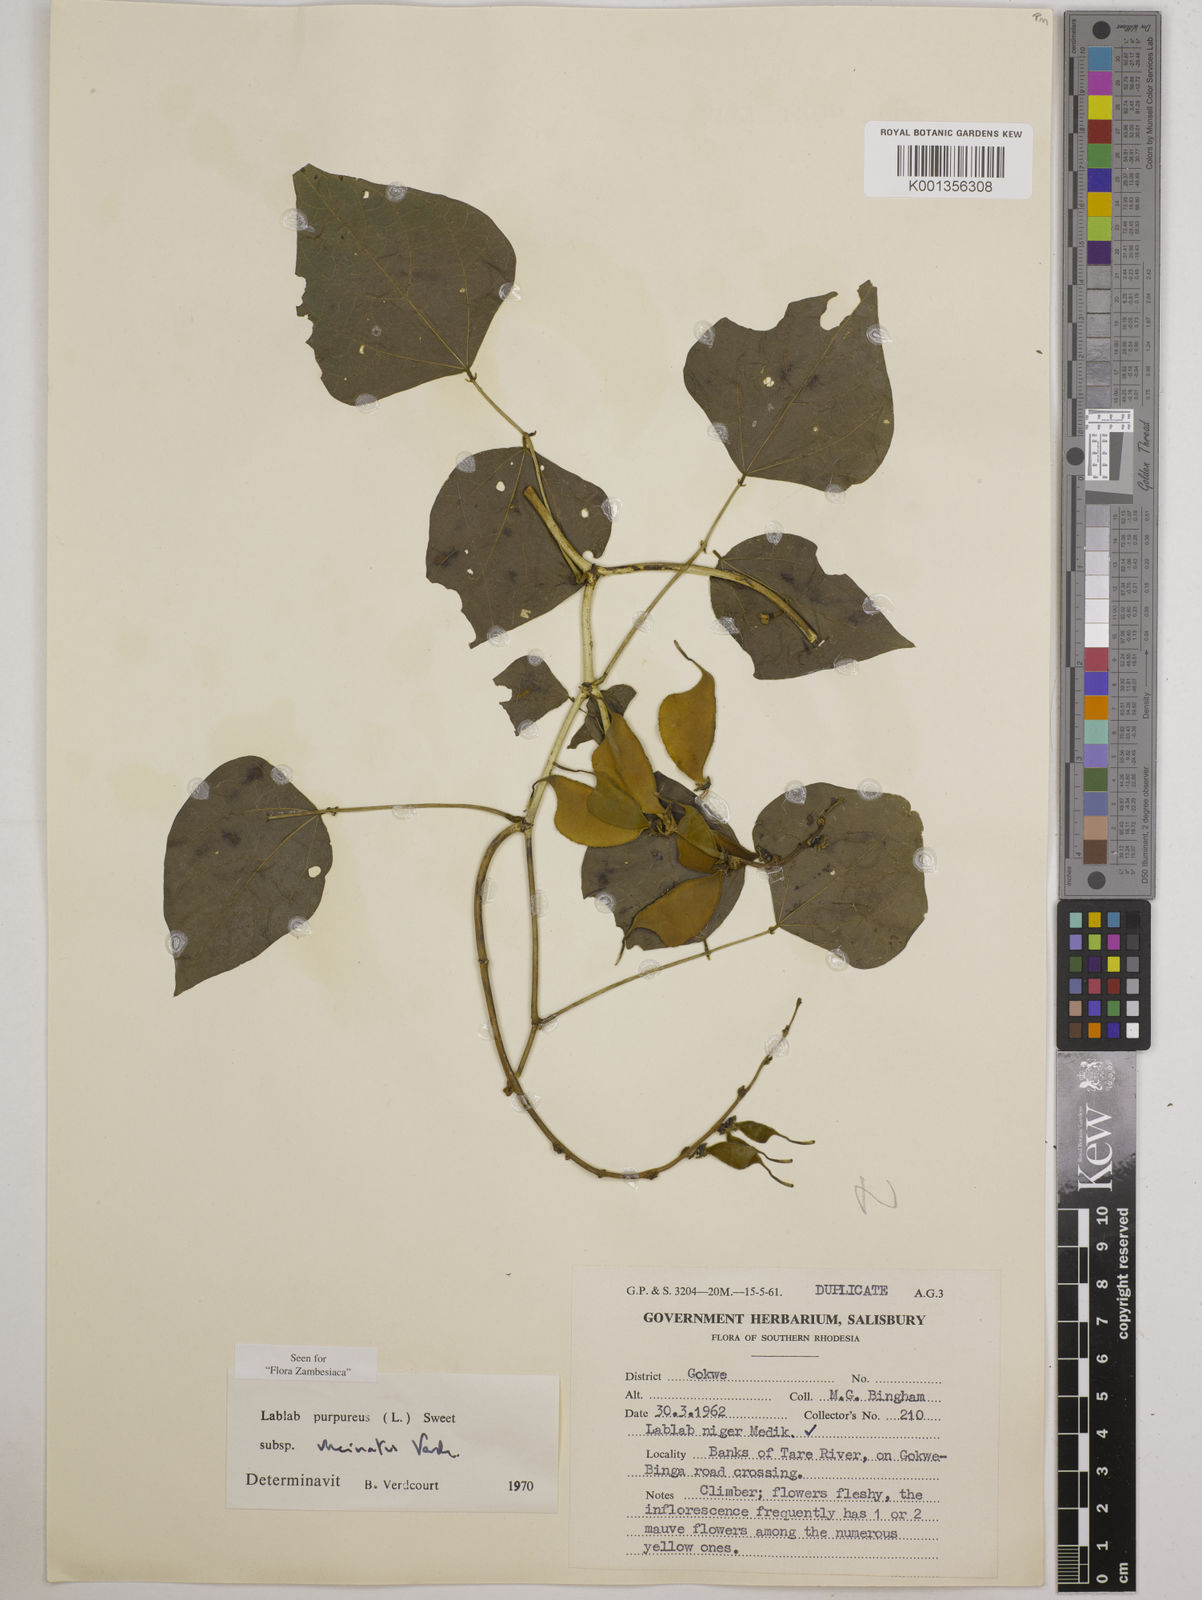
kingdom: Plantae
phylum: Tracheophyta
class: Magnoliopsida
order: Fabales
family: Fabaceae
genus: Lablab
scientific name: Lablab purpureus
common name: Lablab-bean
